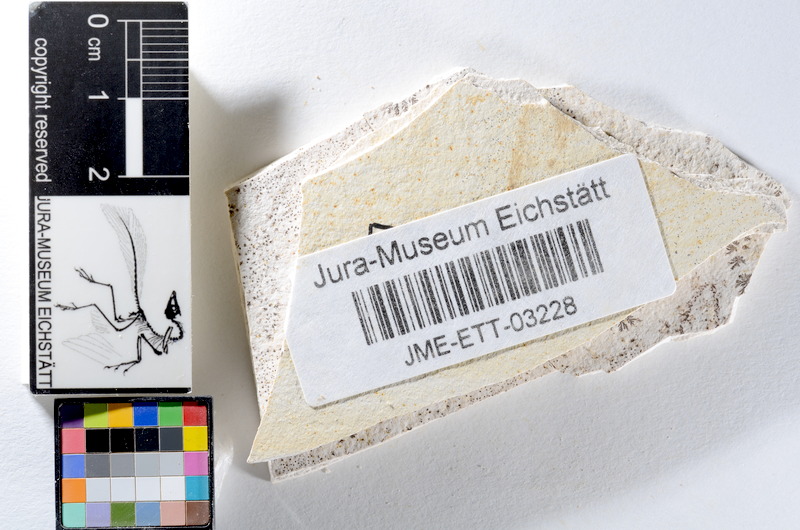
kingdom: Animalia
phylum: Chordata
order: Salmoniformes
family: Orthogonikleithridae
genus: Orthogonikleithrus
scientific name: Orthogonikleithrus hoelli
